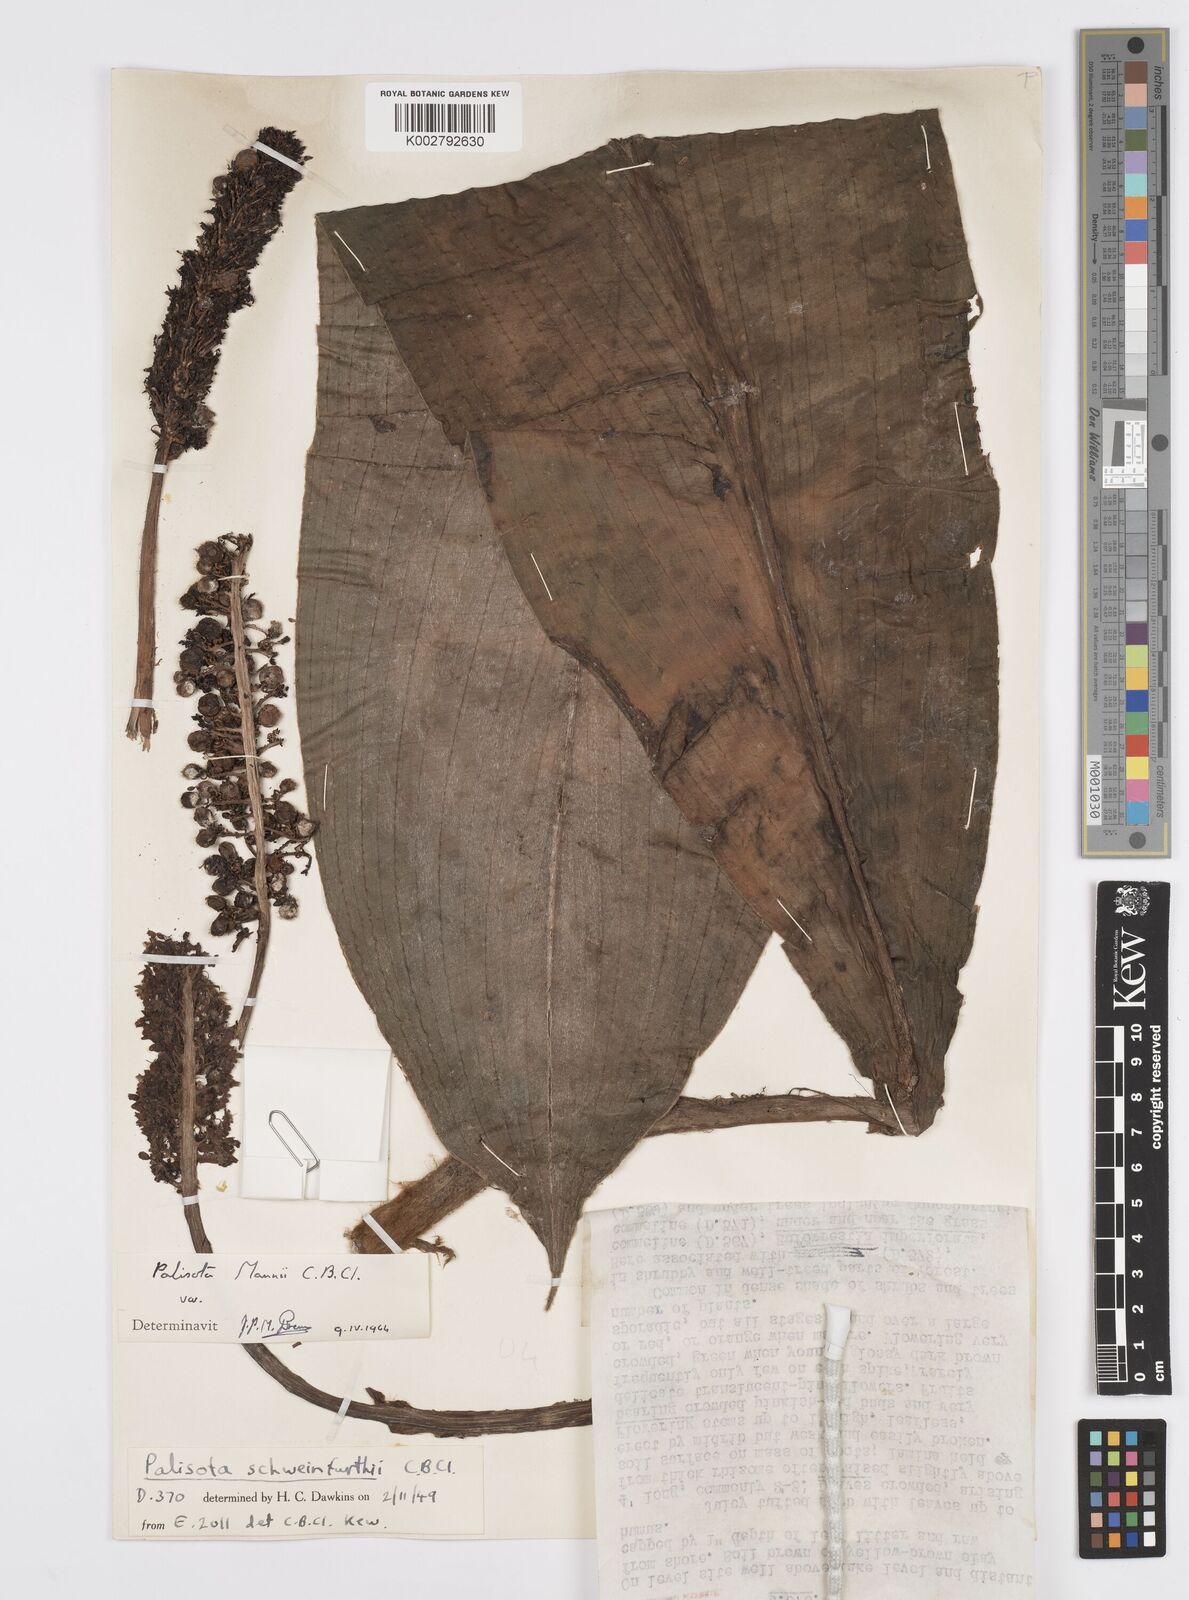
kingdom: Plantae
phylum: Tracheophyta
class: Liliopsida
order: Commelinales
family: Commelinaceae
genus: Palisota
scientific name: Palisota mannii
